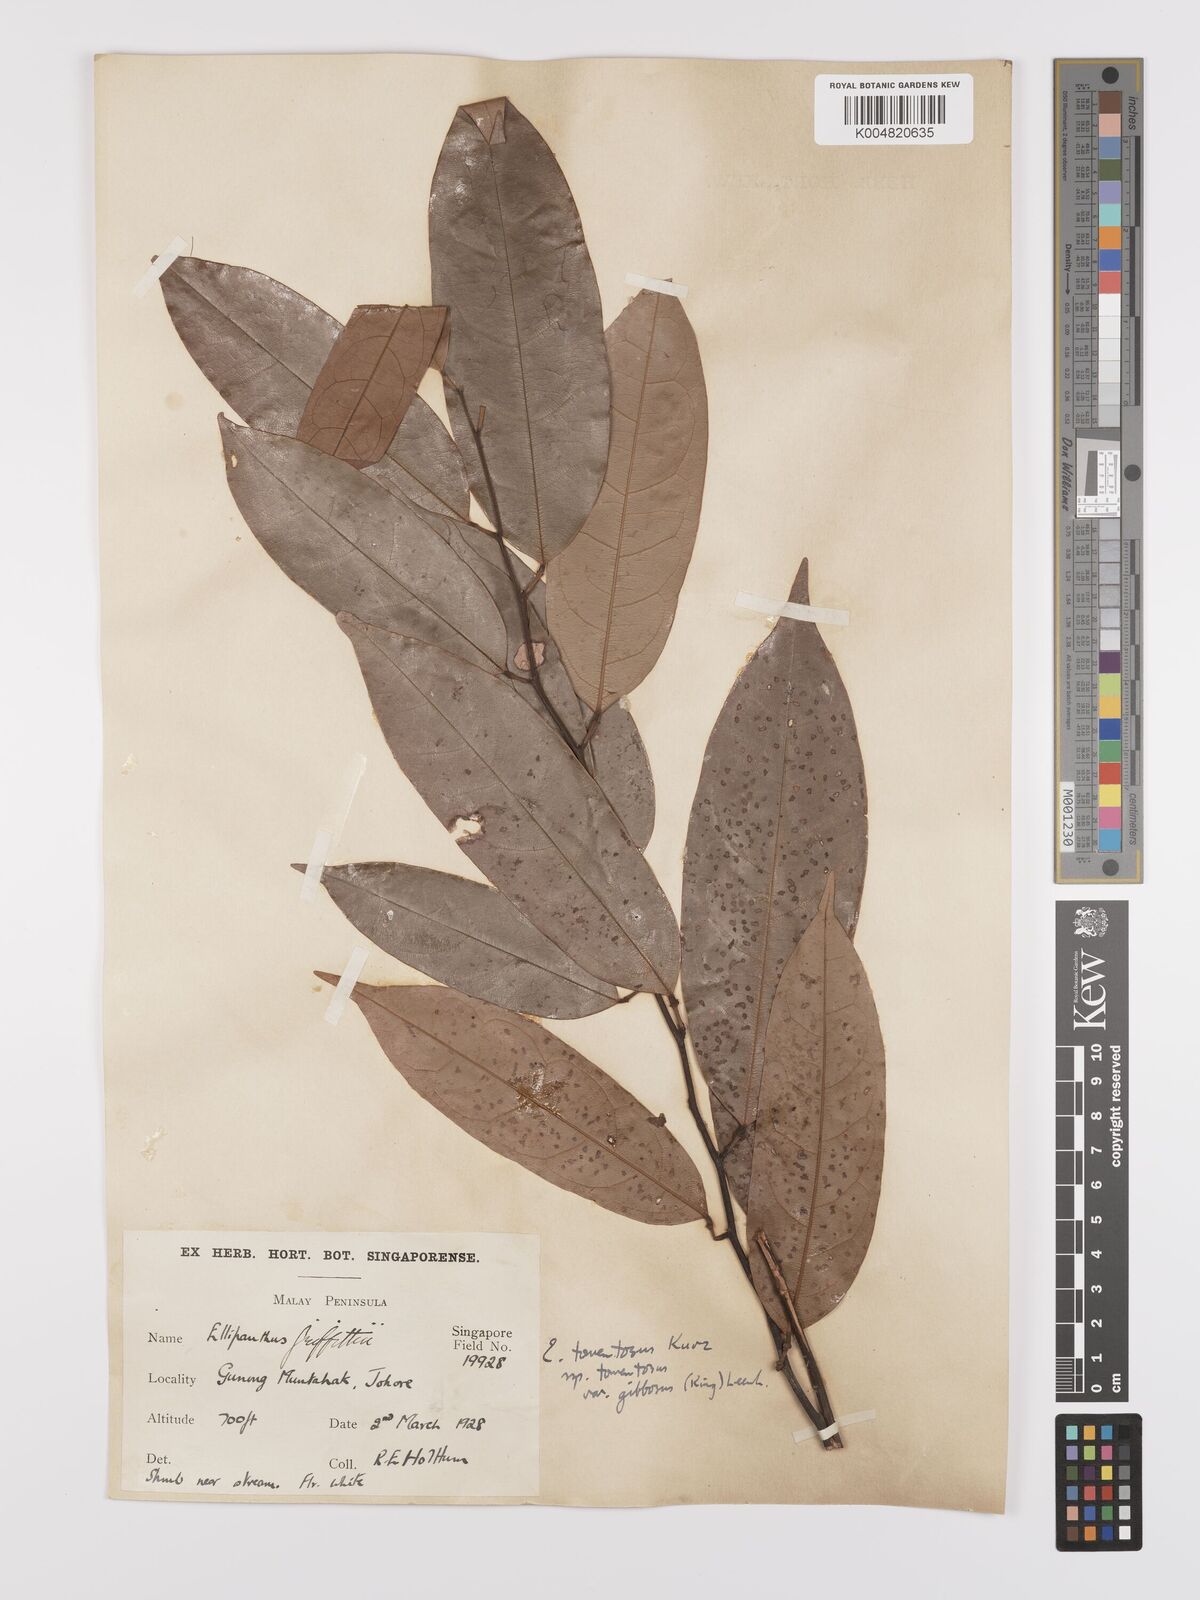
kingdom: Plantae
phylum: Tracheophyta
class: Magnoliopsida
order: Oxalidales
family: Connaraceae
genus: Ellipanthus
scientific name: Ellipanthus tomentosus
